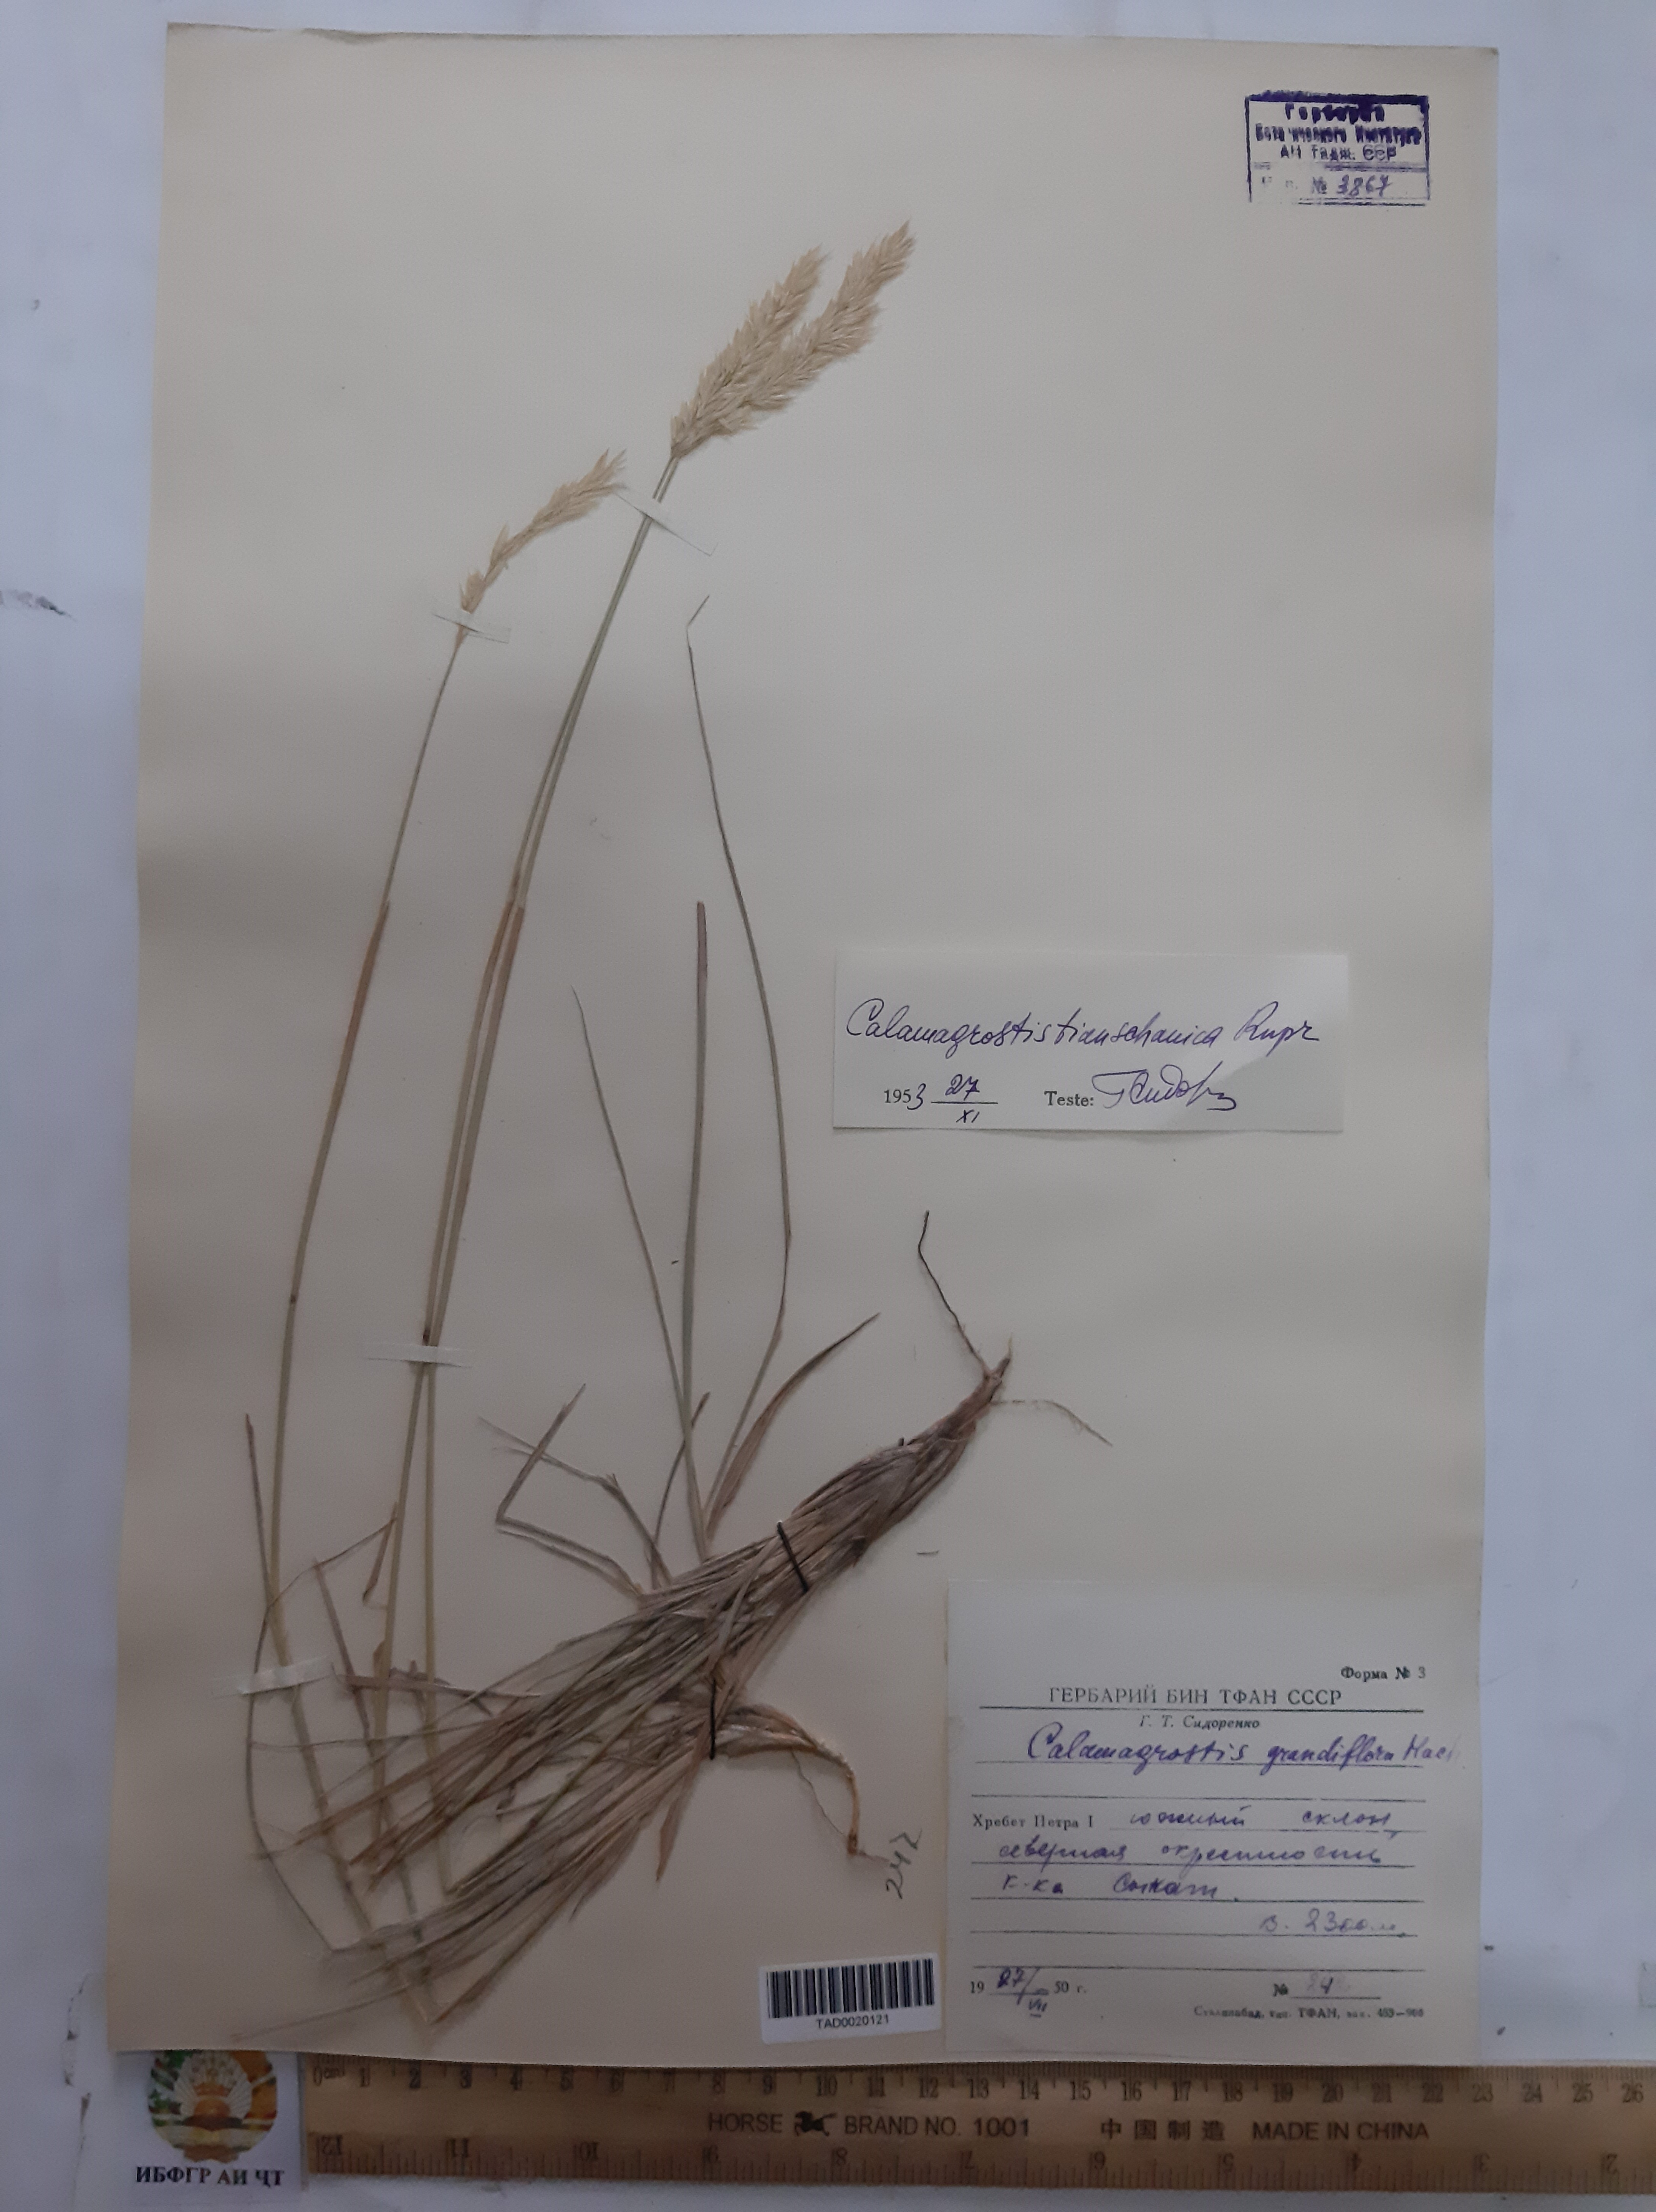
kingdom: Plantae
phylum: Tracheophyta
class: Liliopsida
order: Poales
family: Poaceae
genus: Calamagrostis
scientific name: Calamagrostis holciformis
